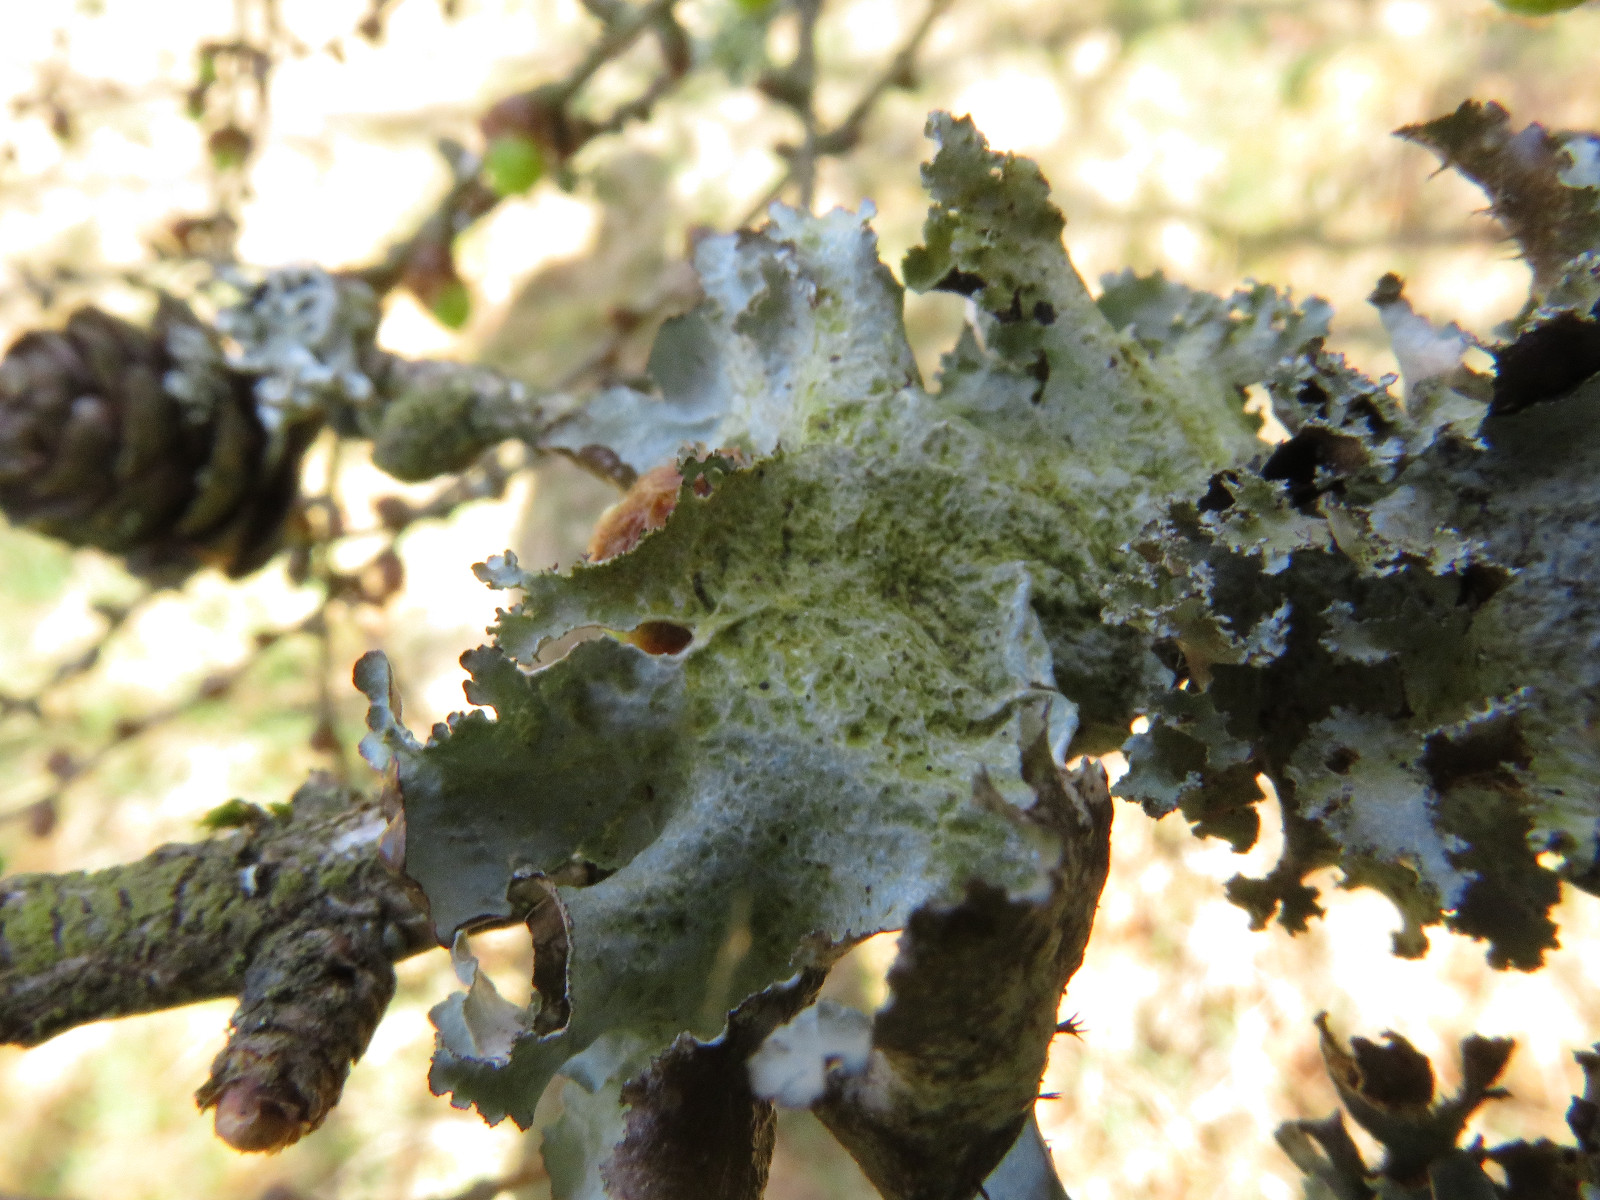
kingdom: Fungi
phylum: Ascomycota
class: Lecanoromycetes
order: Lecanorales
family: Parmeliaceae
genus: Platismatia
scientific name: Platismatia glauca
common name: blågrå papirlav
